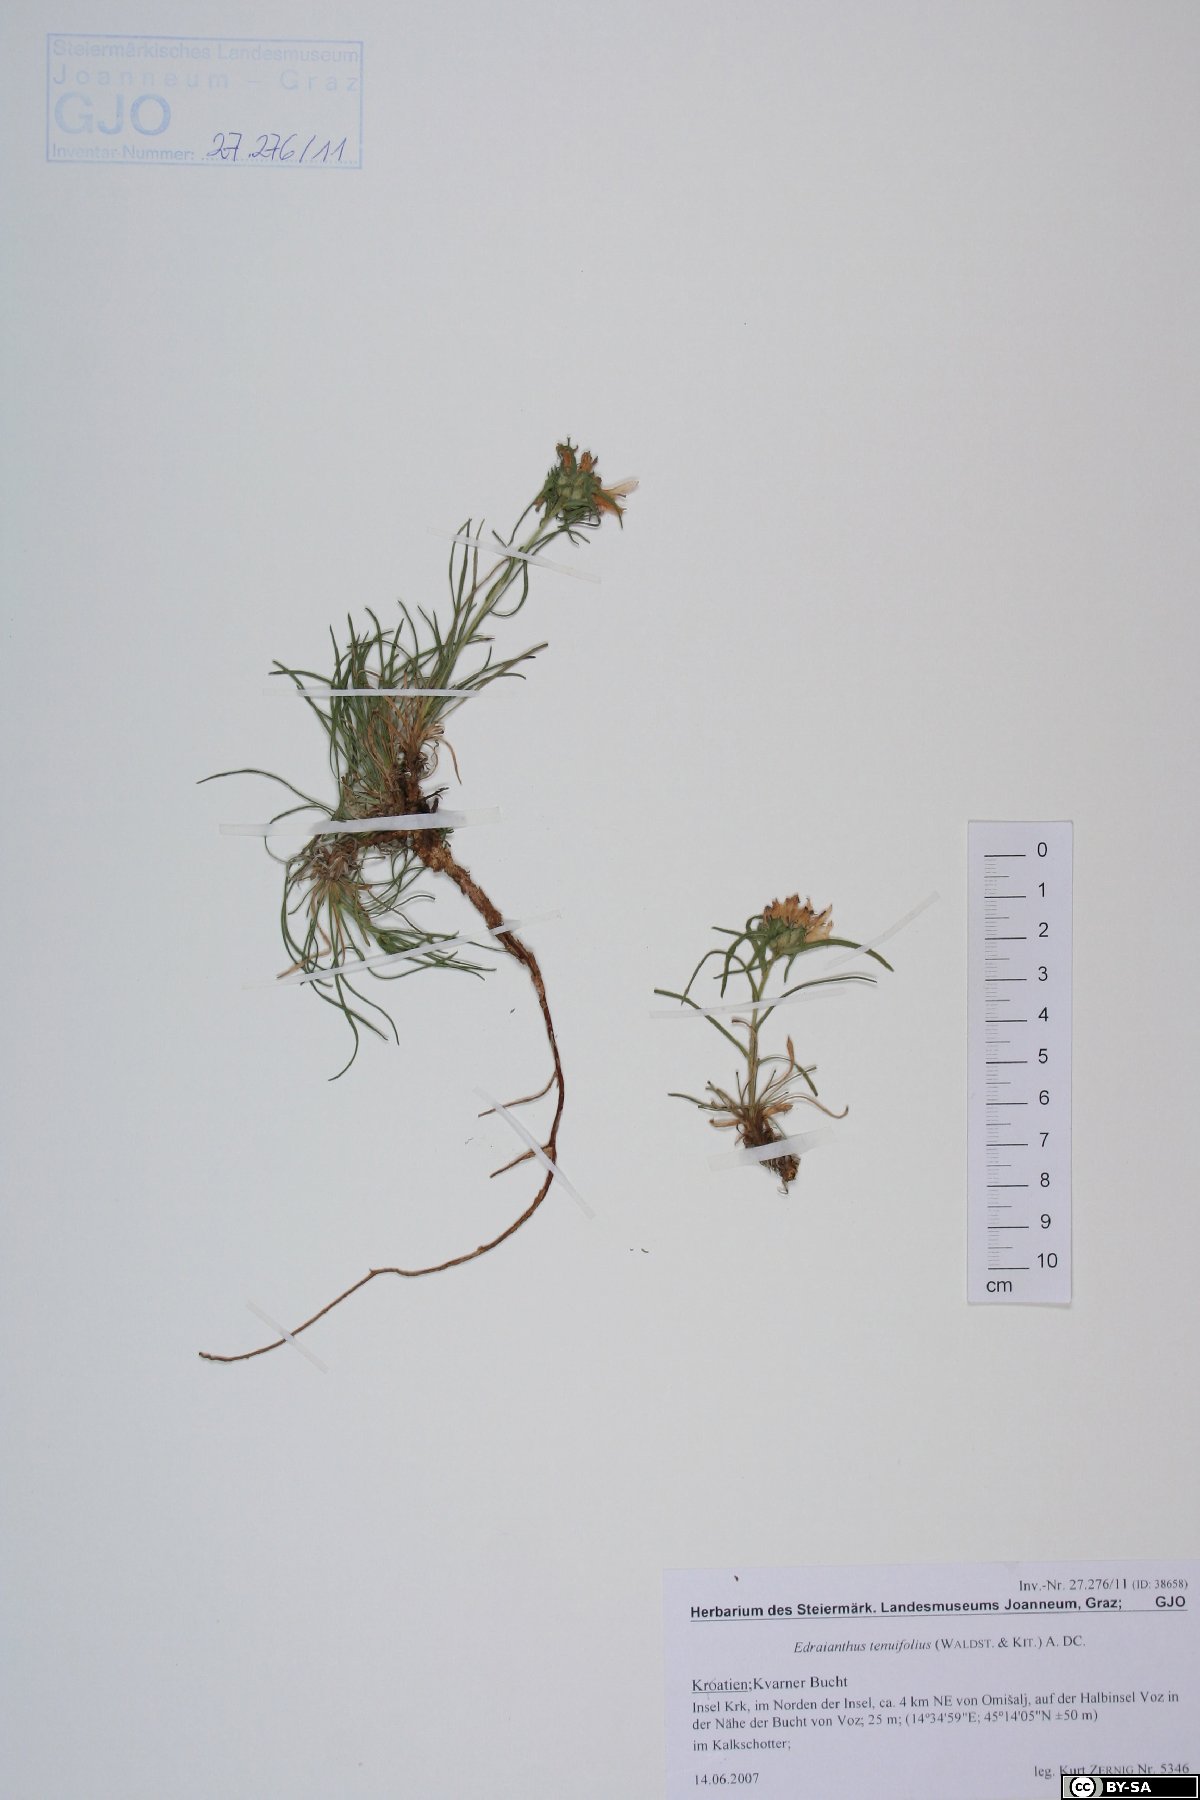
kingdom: Plantae
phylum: Tracheophyta
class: Magnoliopsida
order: Asterales
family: Campanulaceae
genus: Edraianthus
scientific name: Edraianthus tenuifolius
